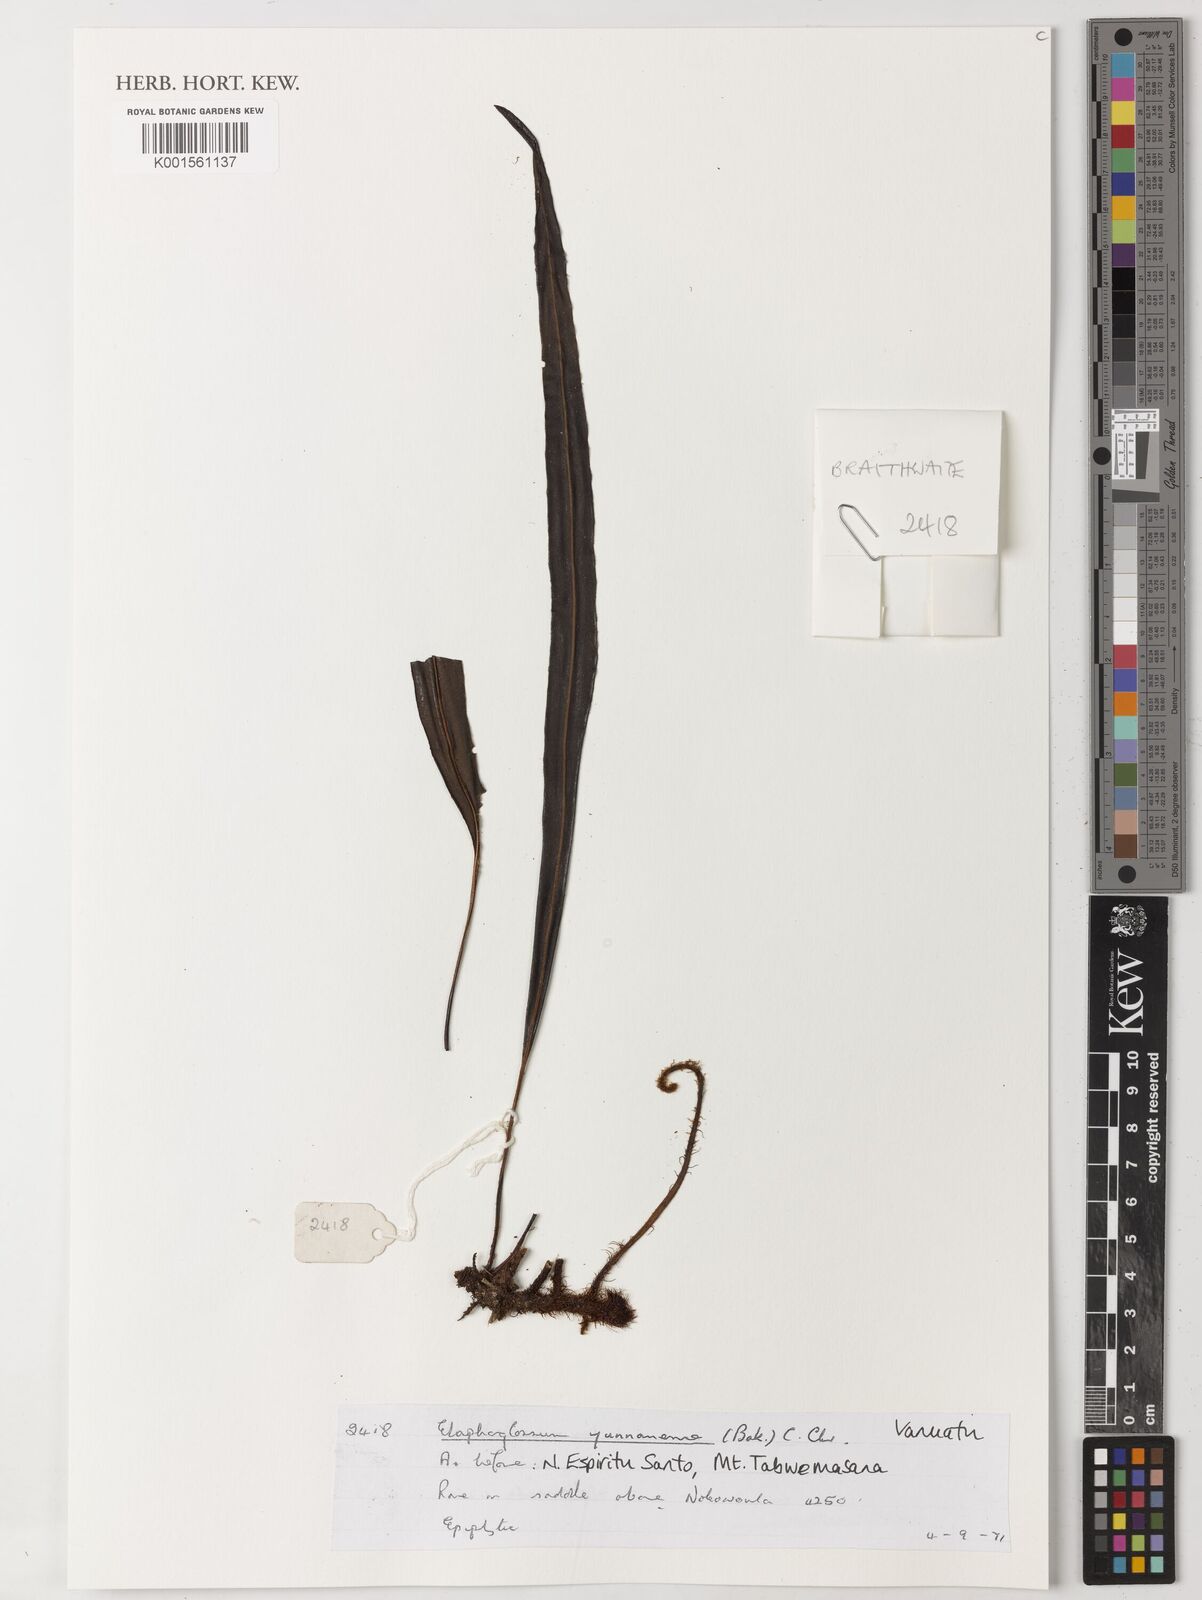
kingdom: Plantae
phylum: Tracheophyta
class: Polypodiopsida
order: Polypodiales
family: Dryopteridaceae
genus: Elaphoglossum
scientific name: Elaphoglossum stelligerum
